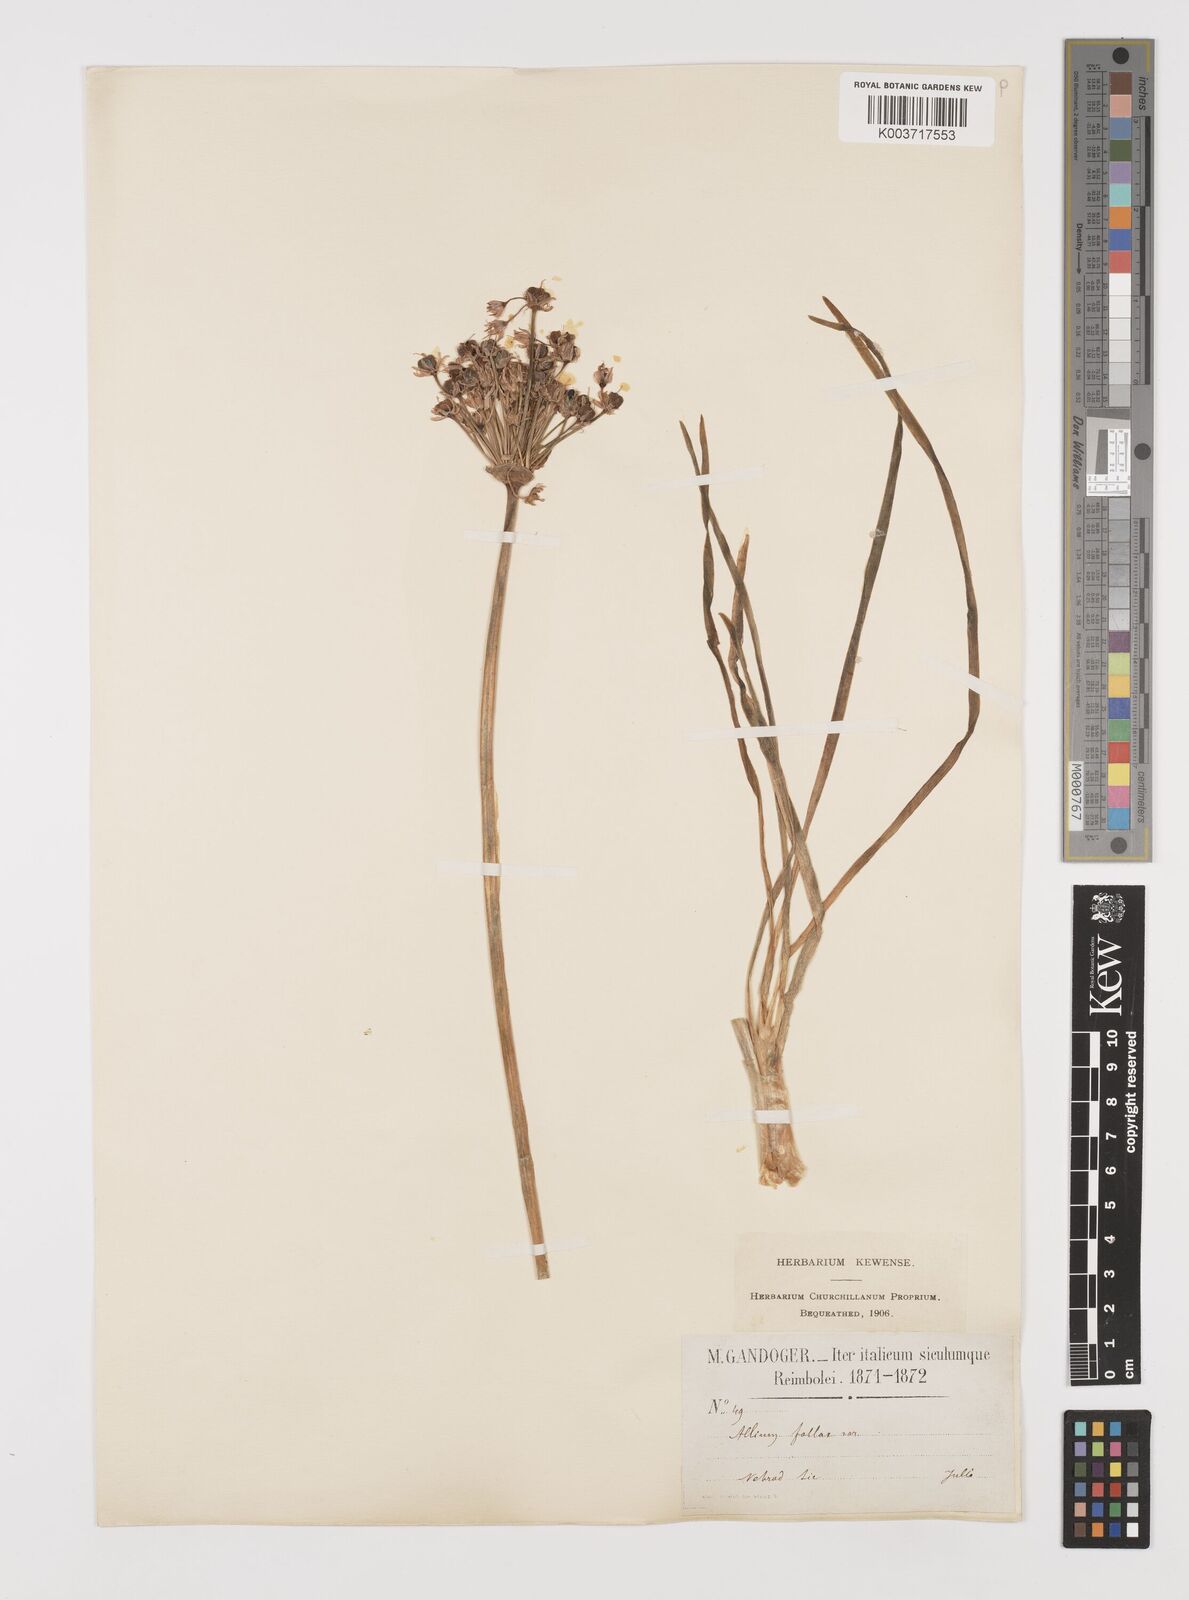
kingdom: Plantae
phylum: Tracheophyta
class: Liliopsida
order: Asparagales
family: Amaryllidaceae
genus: Allium
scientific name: Allium
